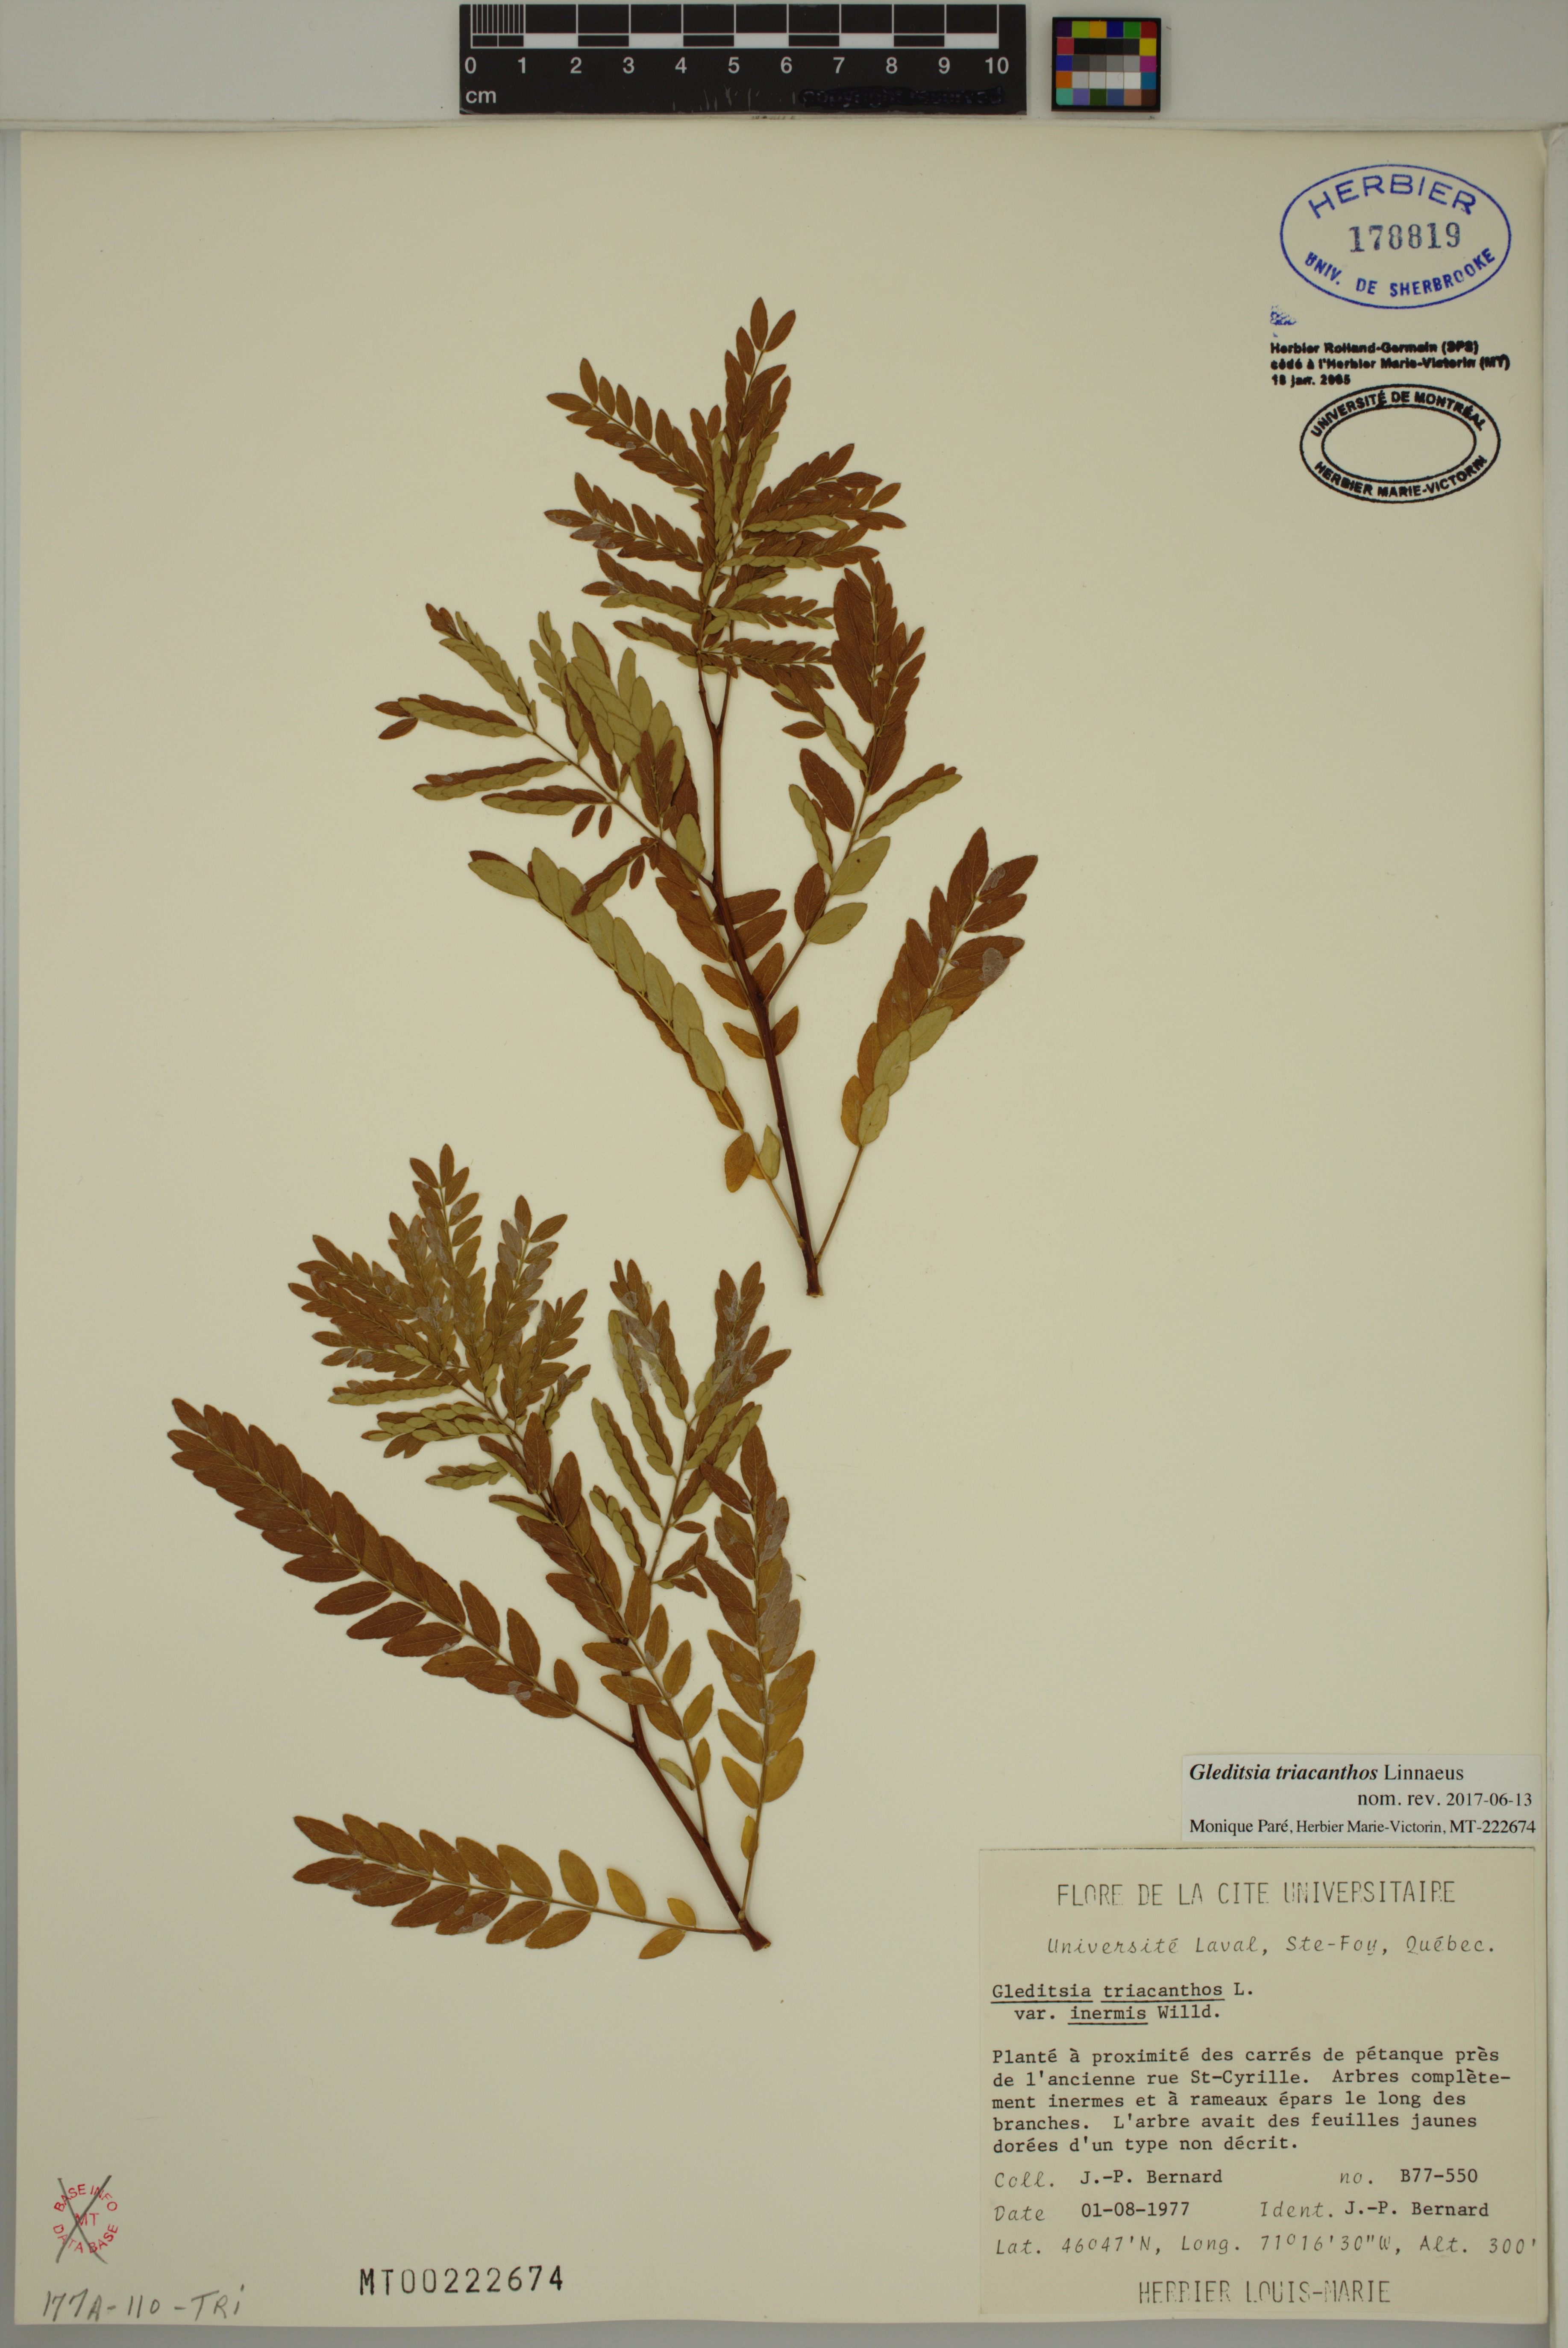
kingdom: Plantae
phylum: Tracheophyta
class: Magnoliopsida
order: Fabales
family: Fabaceae
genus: Gleditsia
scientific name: Gleditsia triacanthos
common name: Common honeylocust
